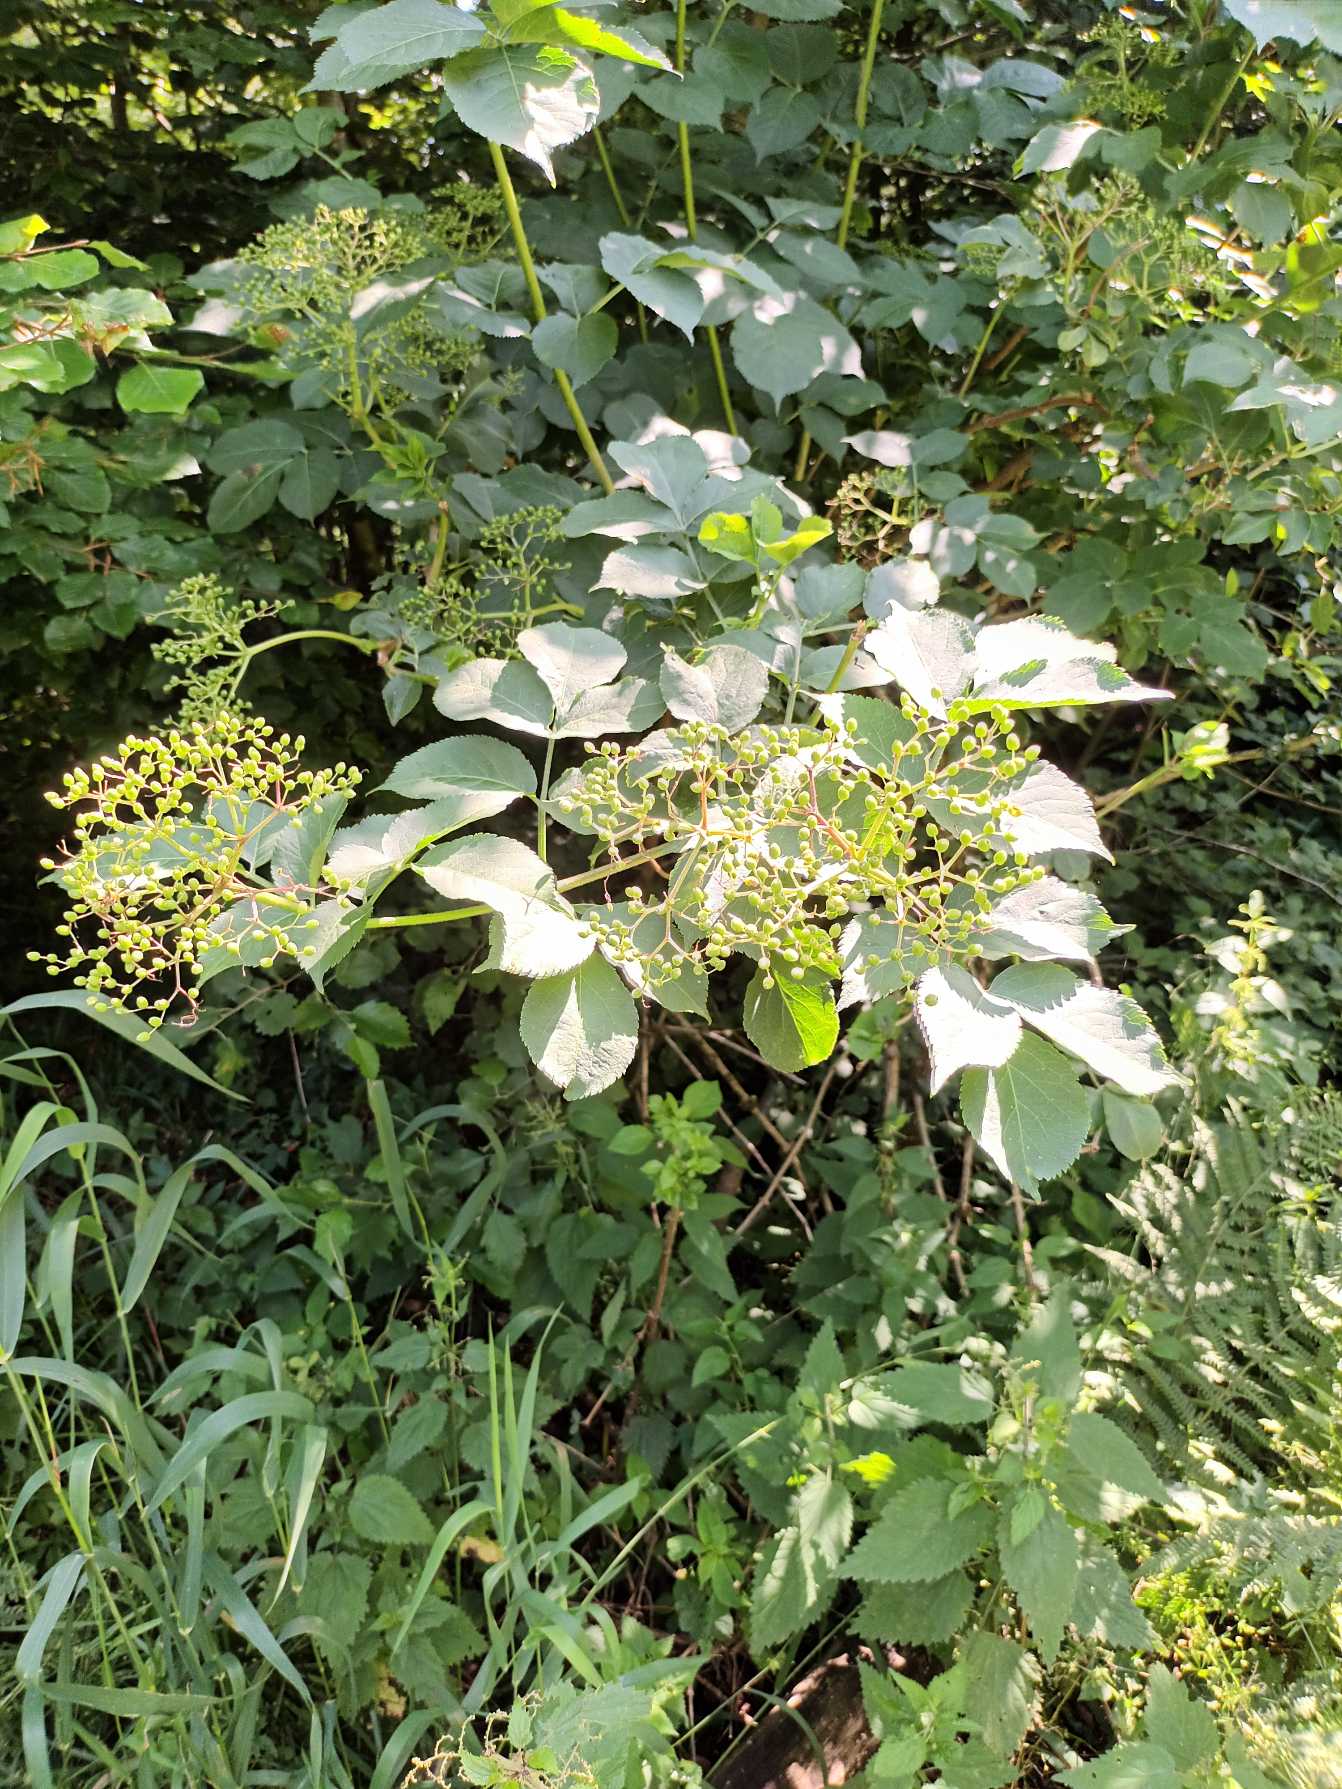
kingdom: Plantae
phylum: Tracheophyta
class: Magnoliopsida
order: Dipsacales
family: Viburnaceae
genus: Sambucus
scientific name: Sambucus nigra
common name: Almindelig hyld
